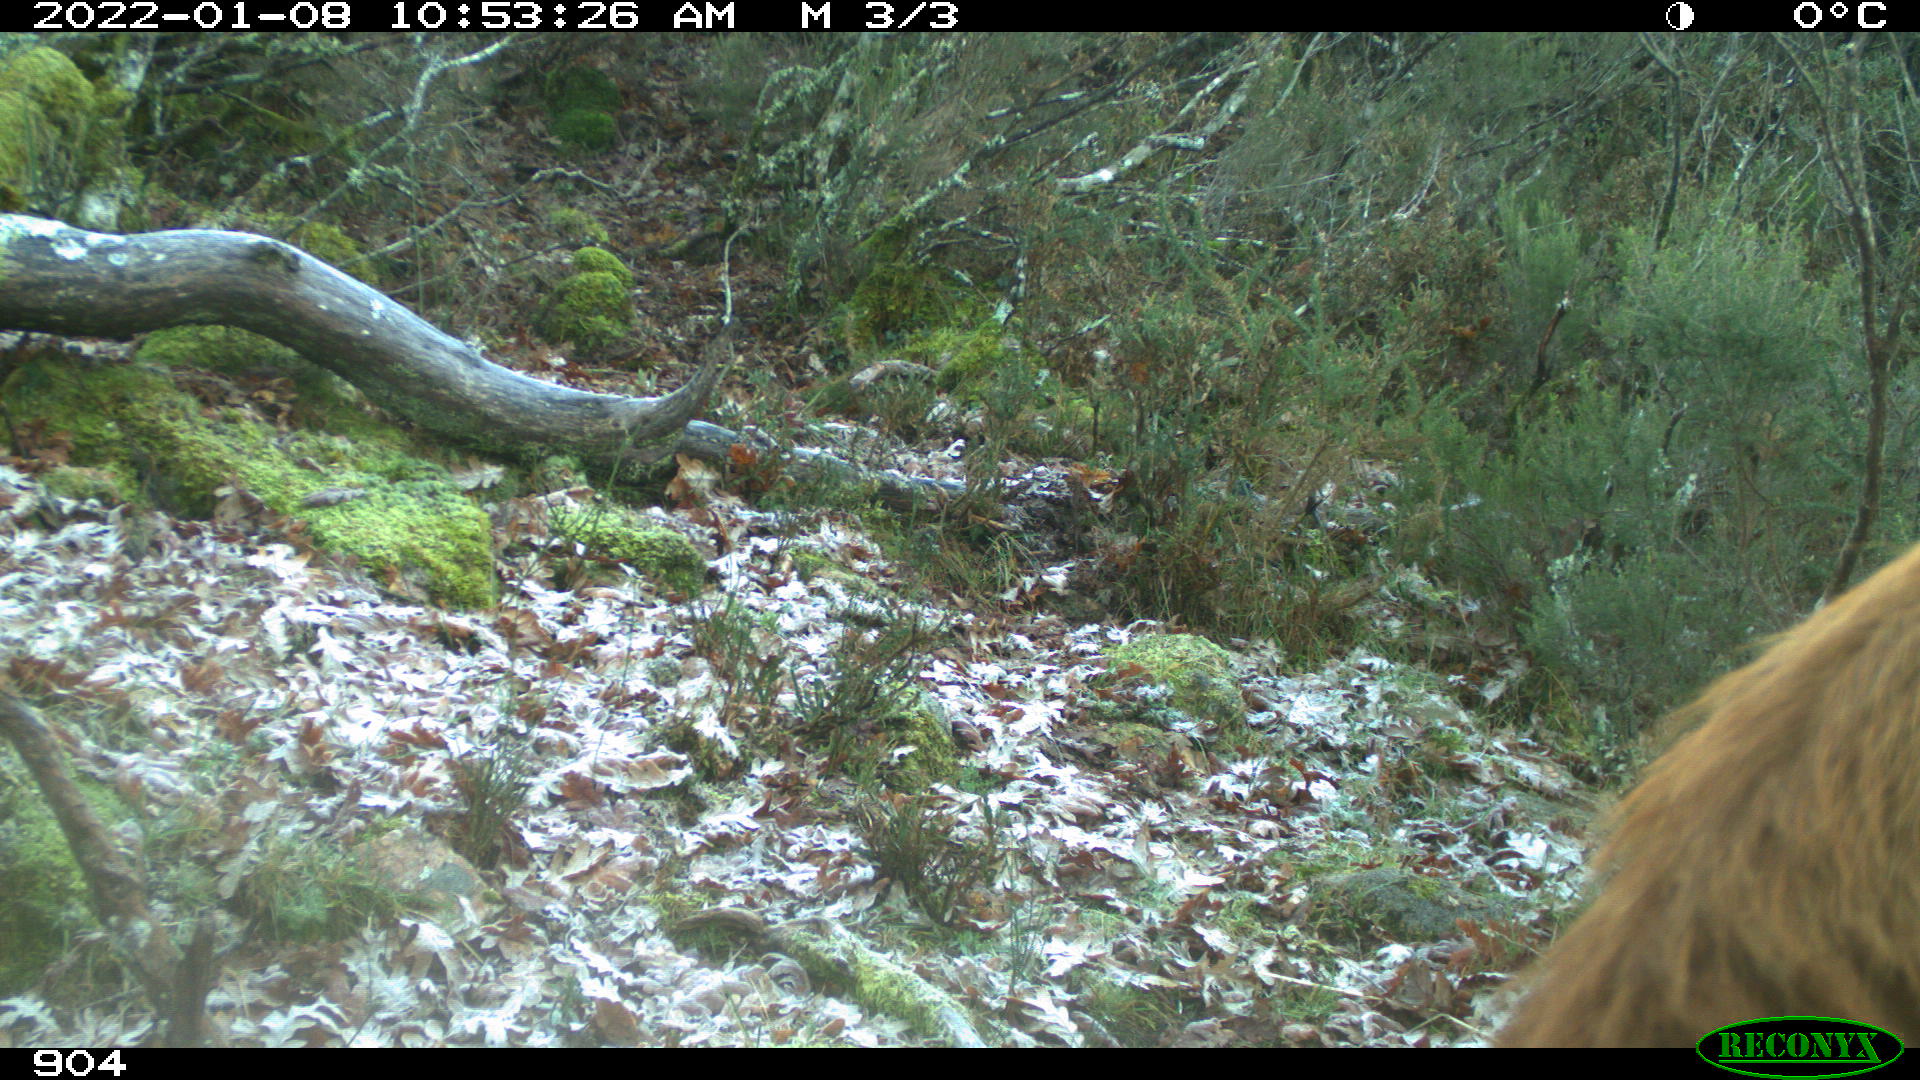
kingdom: Animalia
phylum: Chordata
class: Mammalia
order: Artiodactyla
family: Bovidae
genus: Bos
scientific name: Bos taurus
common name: Domesticated cattle
